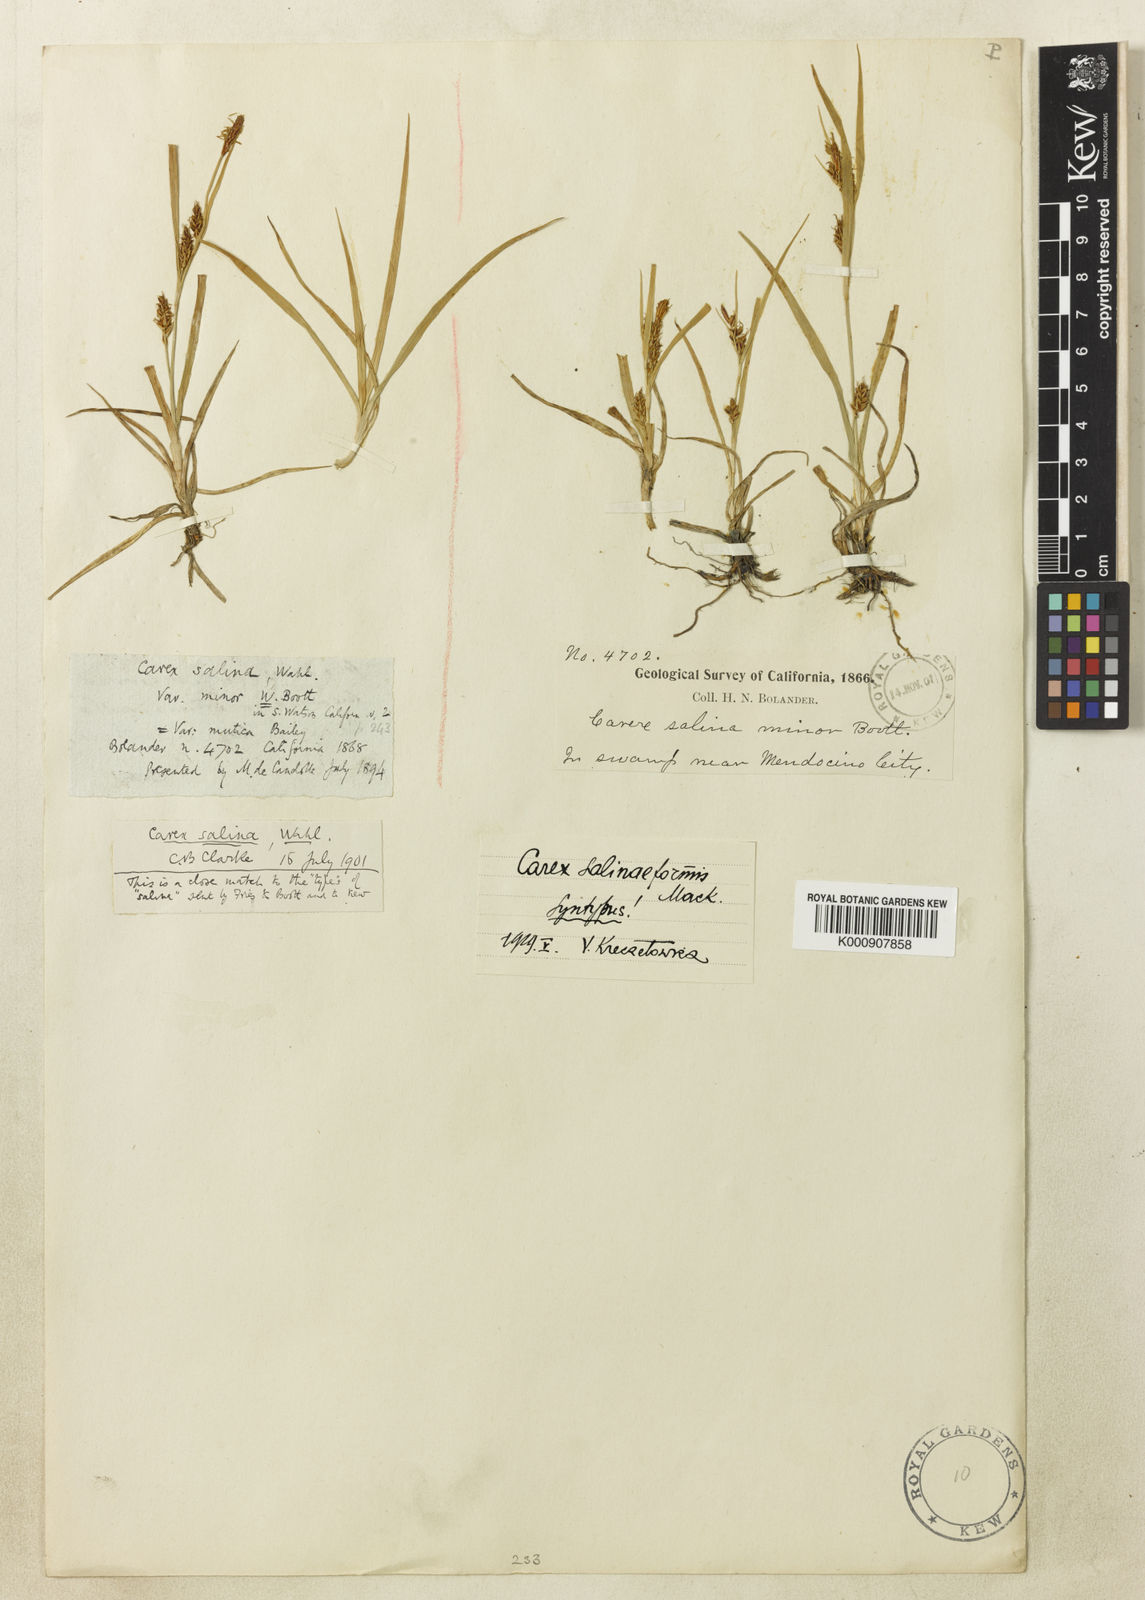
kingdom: Plantae
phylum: Tracheophyta
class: Liliopsida
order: Poales
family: Cyperaceae
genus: Carex
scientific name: Carex hassei
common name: Hasse's sedge
